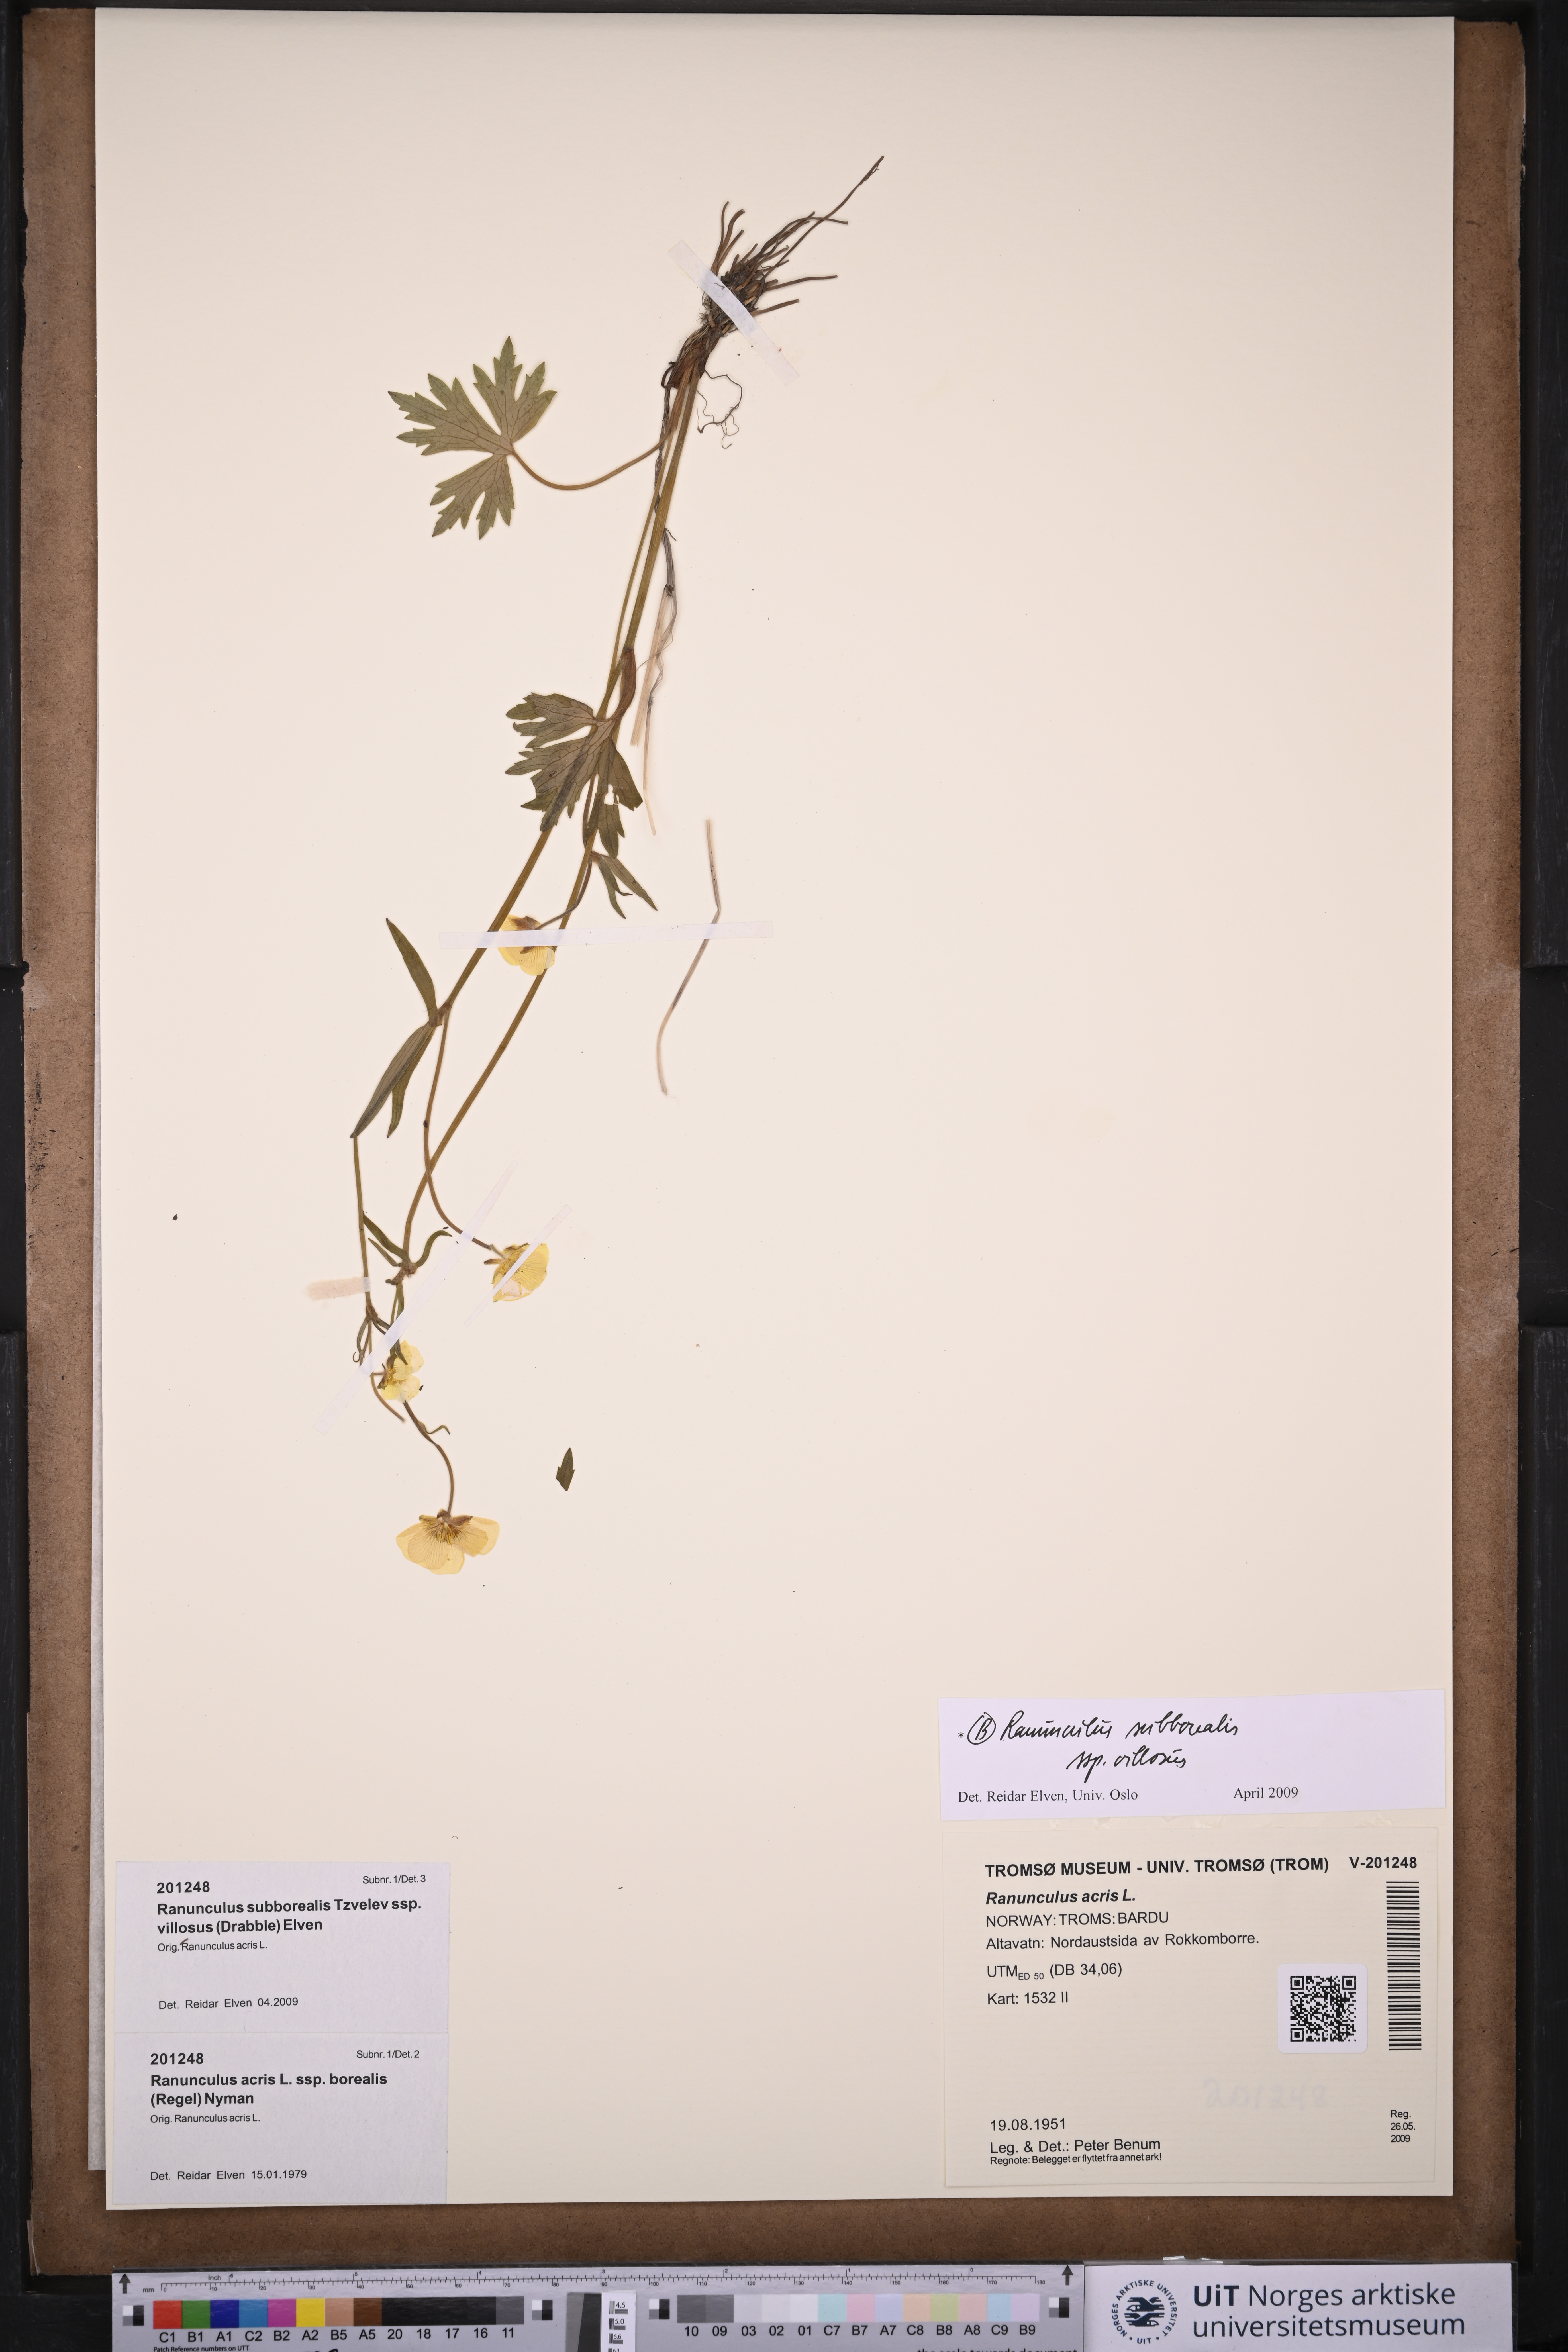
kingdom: Plantae
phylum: Tracheophyta
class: Magnoliopsida
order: Ranunculales
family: Ranunculaceae
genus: Ranunculus
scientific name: Ranunculus propinquus
